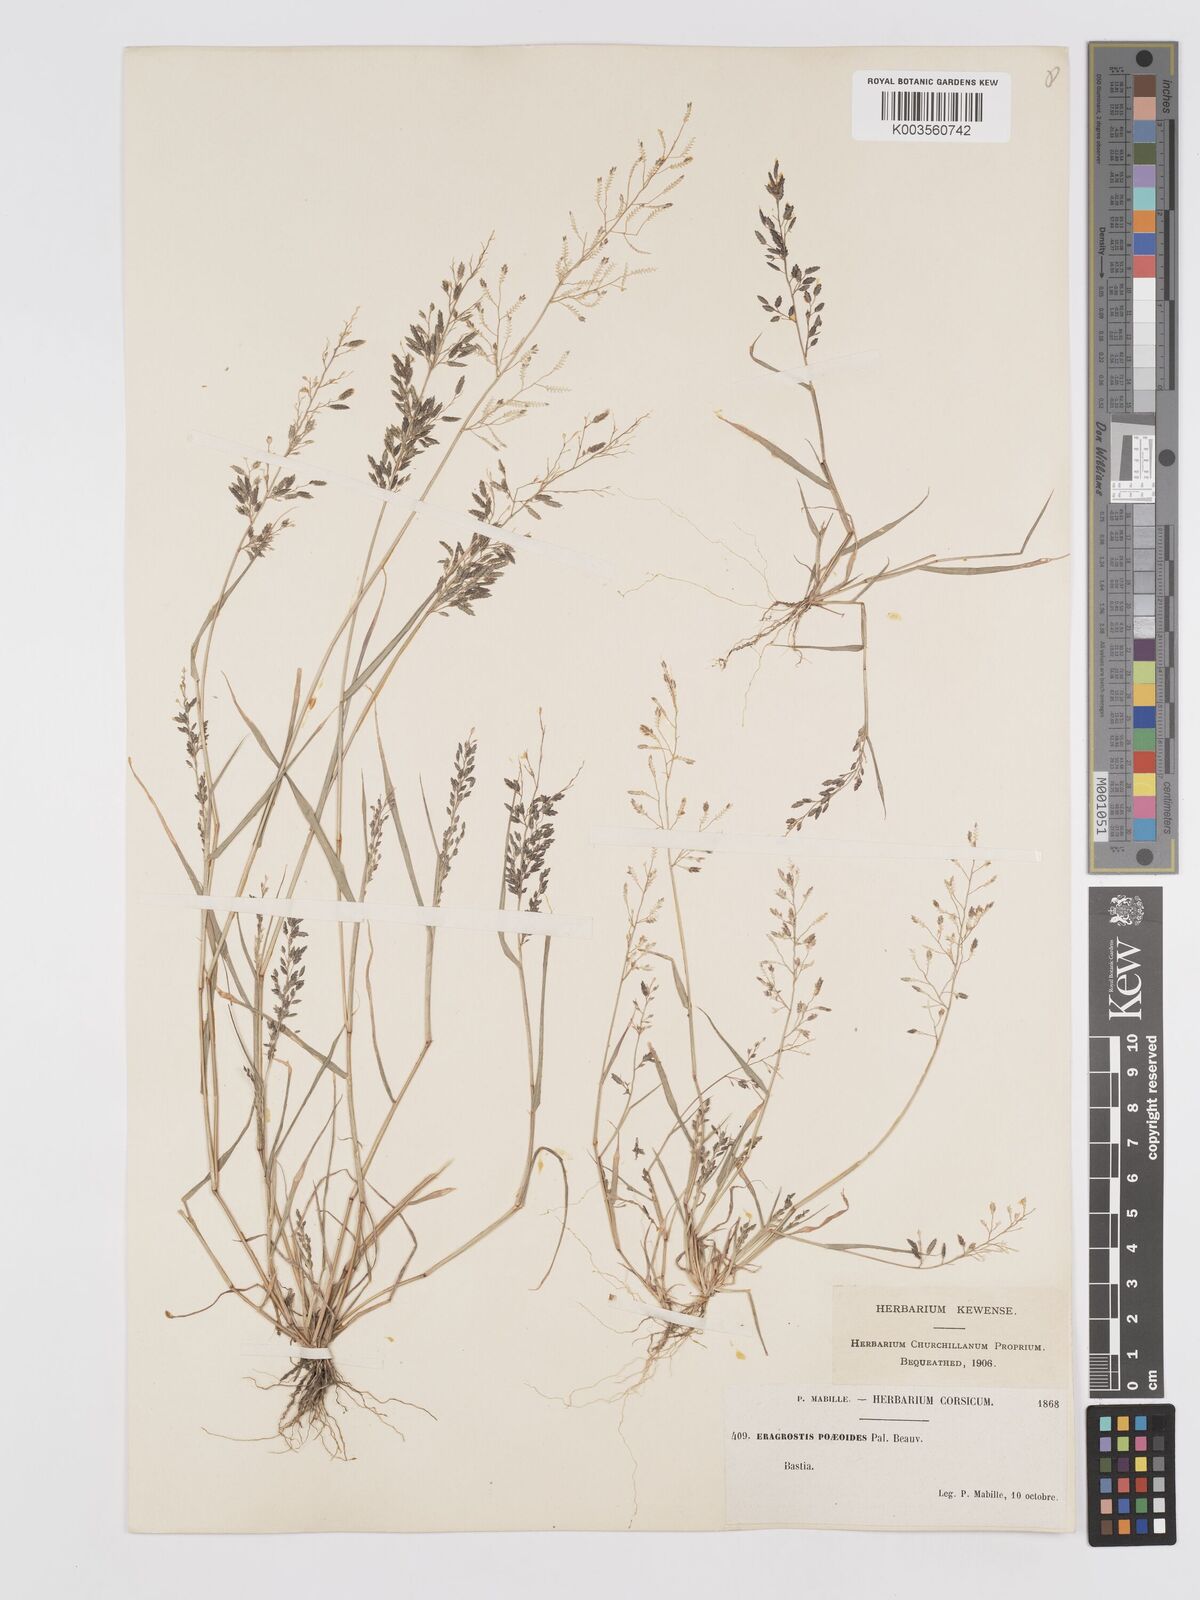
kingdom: Plantae
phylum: Tracheophyta
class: Liliopsida
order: Poales
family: Poaceae
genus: Eragrostis
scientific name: Eragrostis minor
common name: Small love-grass
